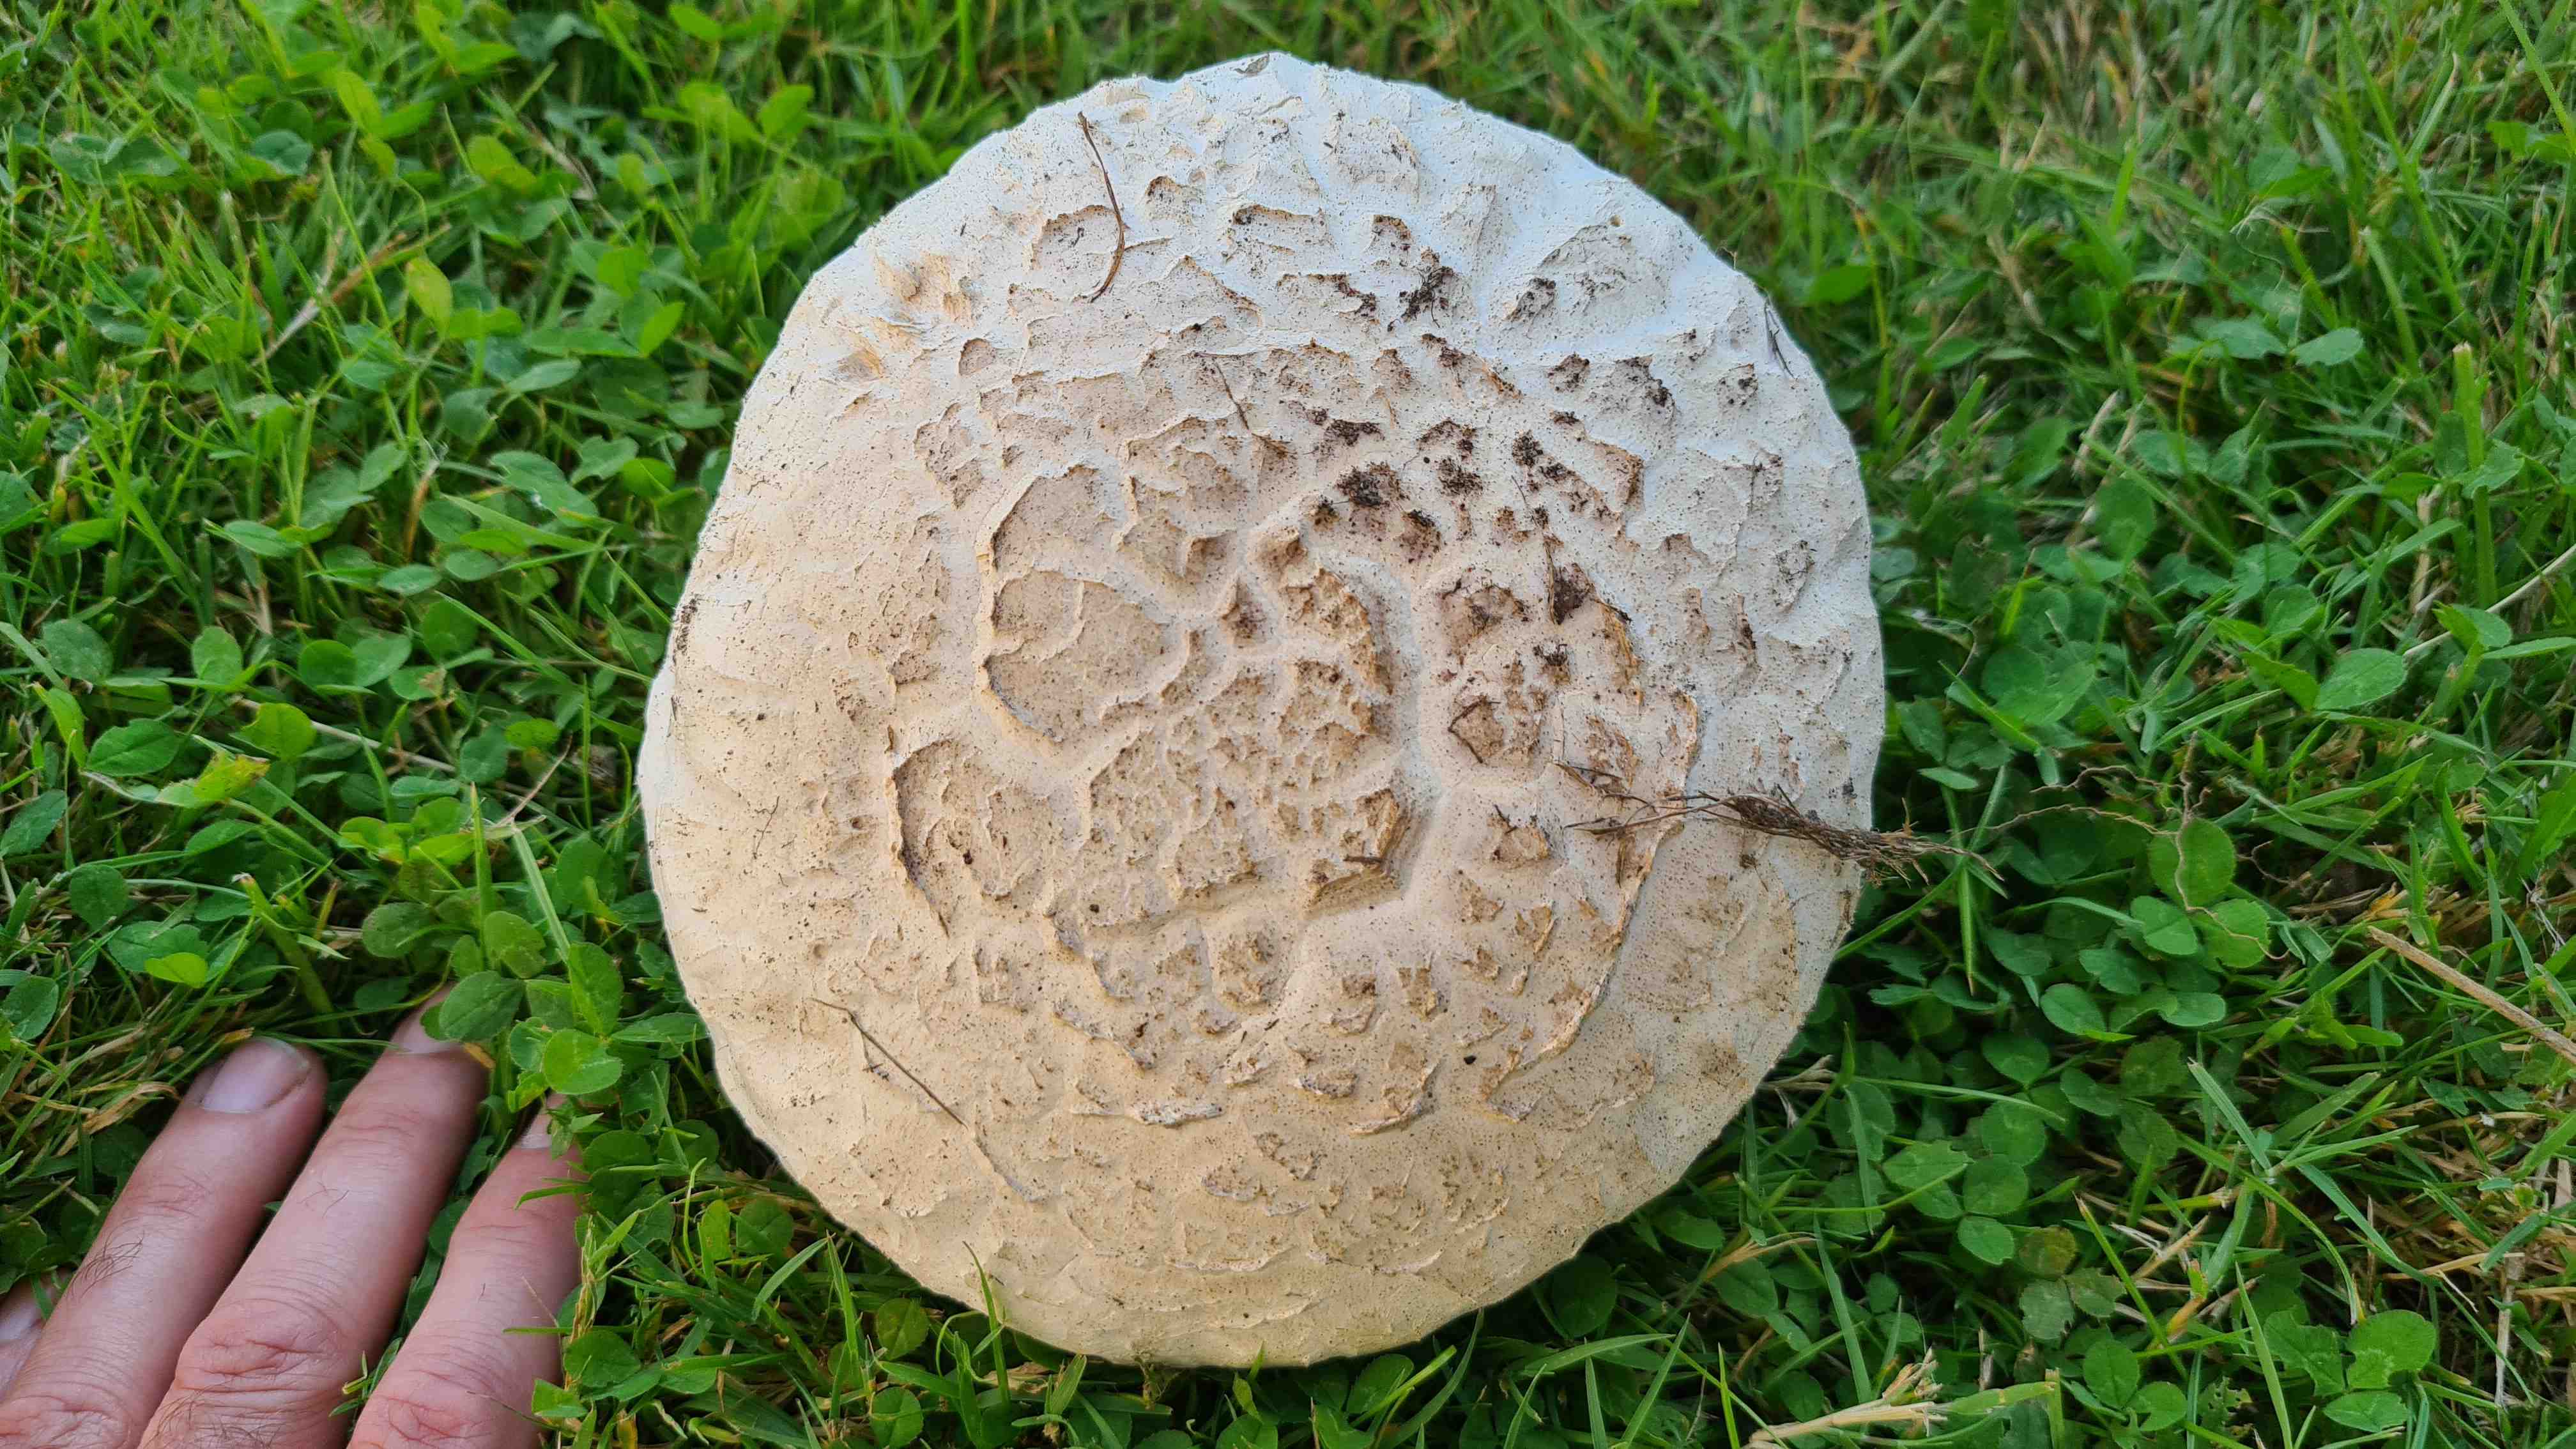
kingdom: Fungi
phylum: Basidiomycota
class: Agaricomycetes
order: Agaricales
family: Agaricaceae
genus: Agaricus
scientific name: Agaricus bernardii
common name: strandengs-champignon
